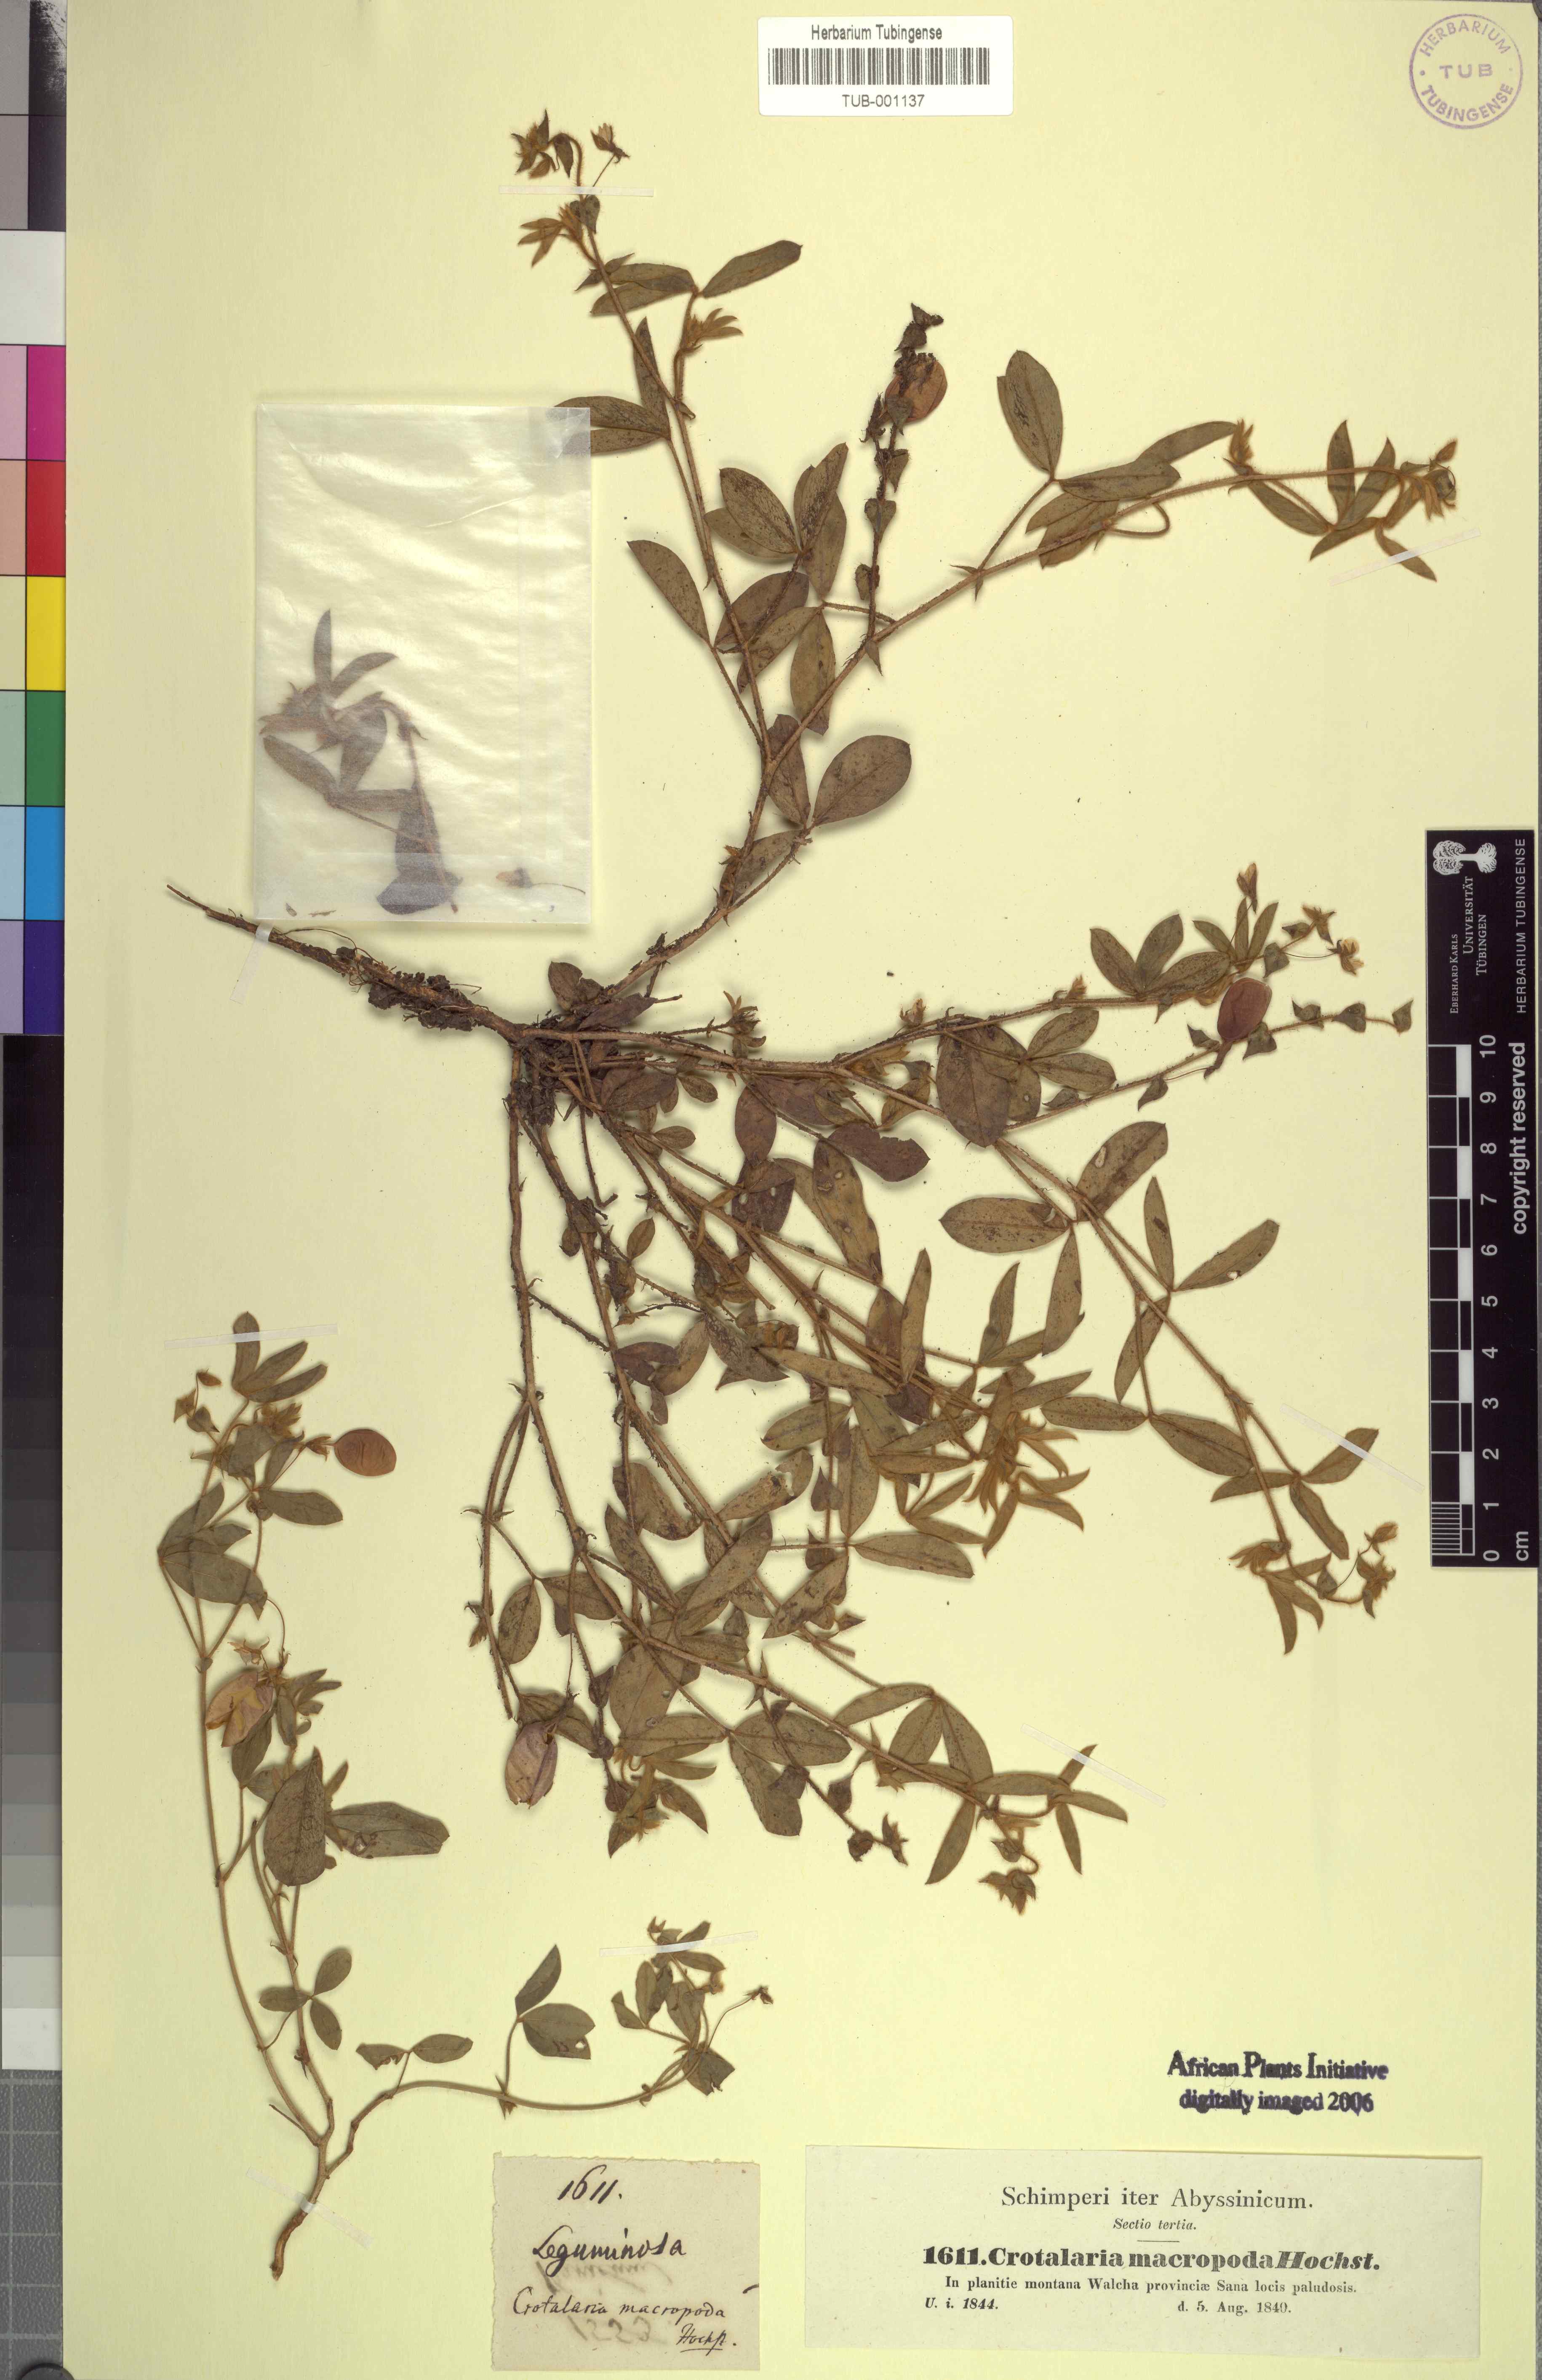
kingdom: Plantae
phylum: Tracheophyta
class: Magnoliopsida
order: Fabales
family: Fabaceae
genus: Crotalaria
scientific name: Crotalaria orixensis
